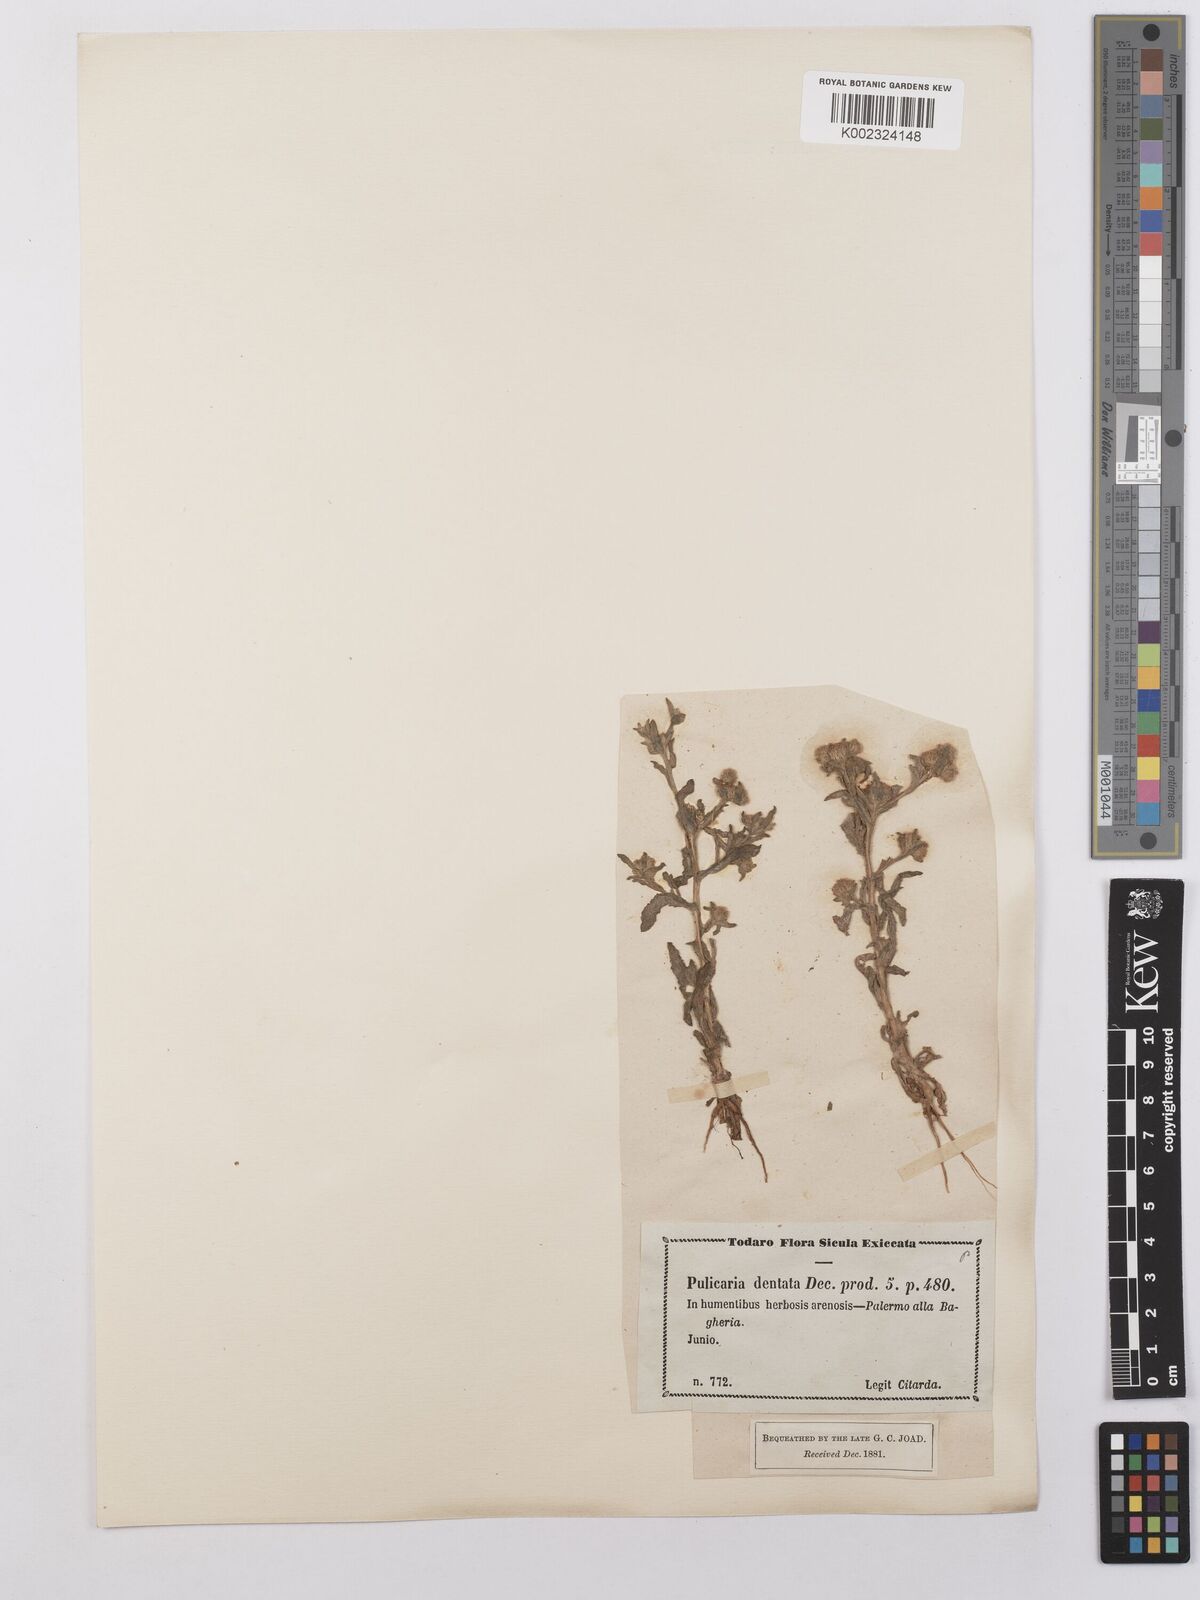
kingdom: Plantae
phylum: Tracheophyta
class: Magnoliopsida
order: Asterales
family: Asteraceae
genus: Pulicaria
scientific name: Pulicaria vulgaris
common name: Small fleabane
